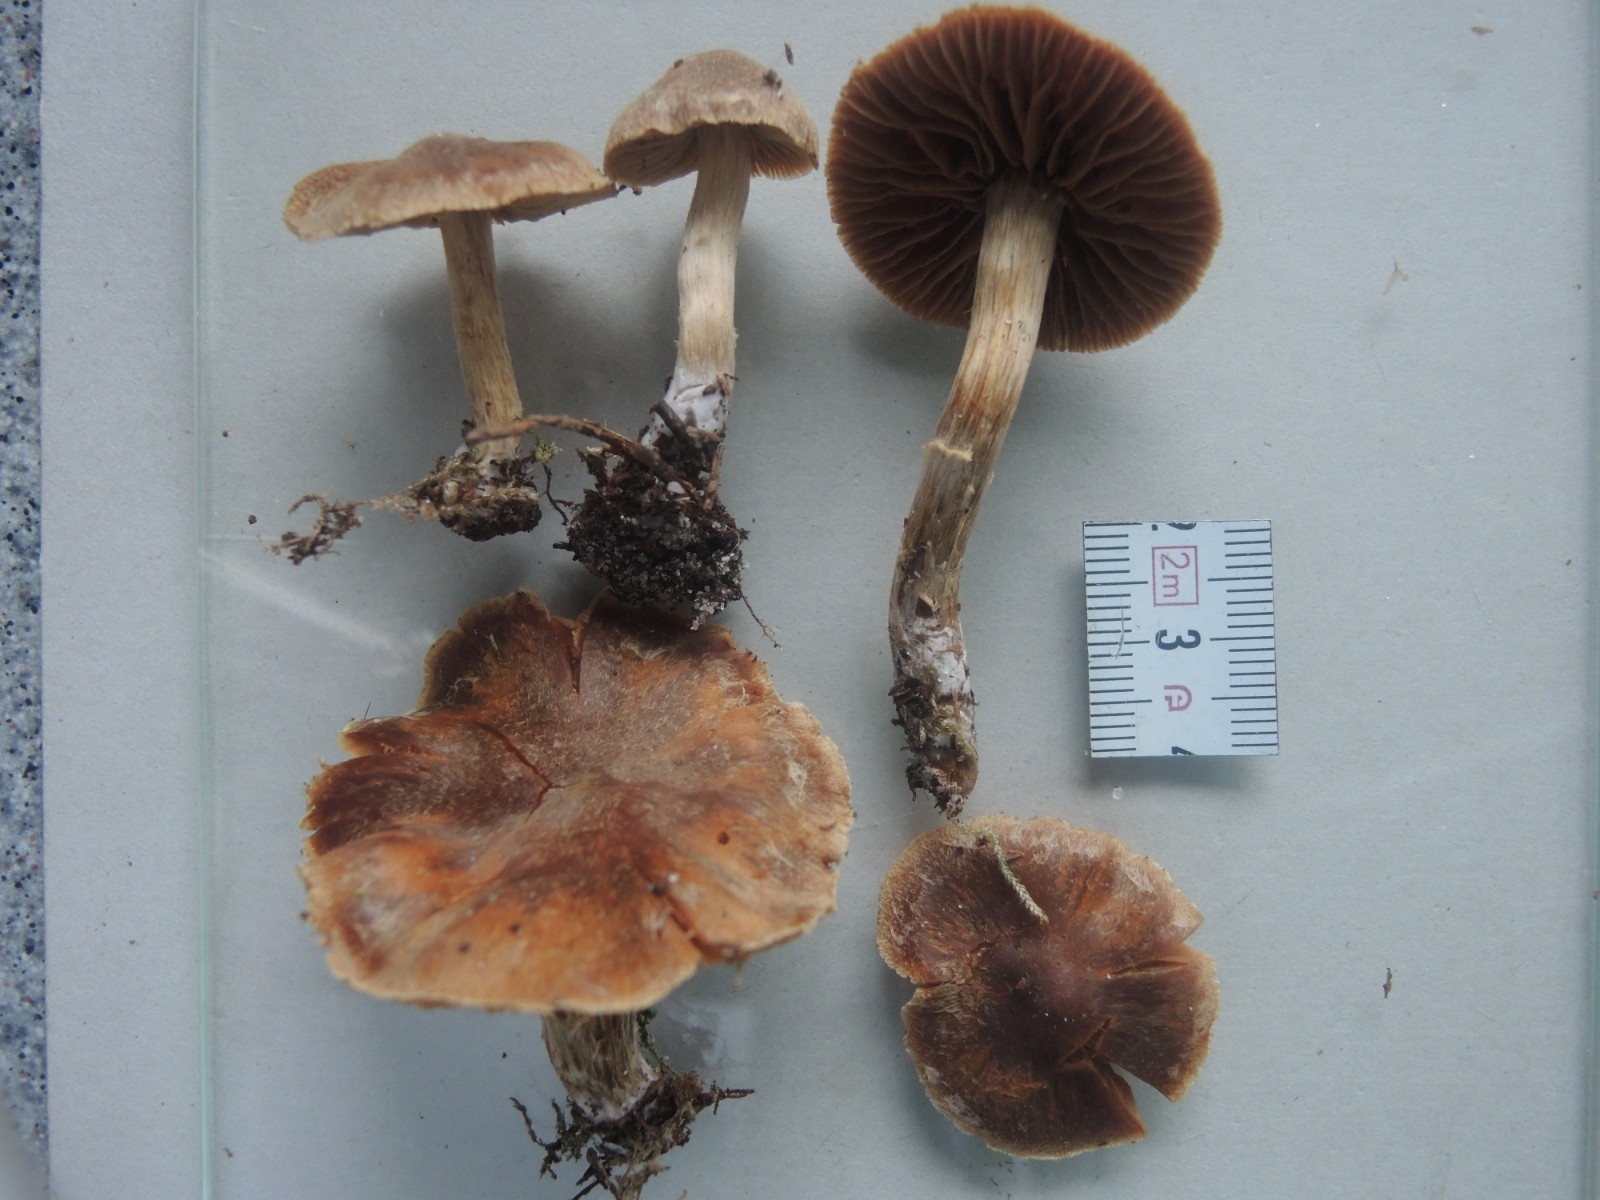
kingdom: Fungi
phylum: Basidiomycota
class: Agaricomycetes
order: Agaricales
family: Cortinariaceae
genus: Cortinarius
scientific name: Cortinarius pinisquamulosus
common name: finskællet slørhat
